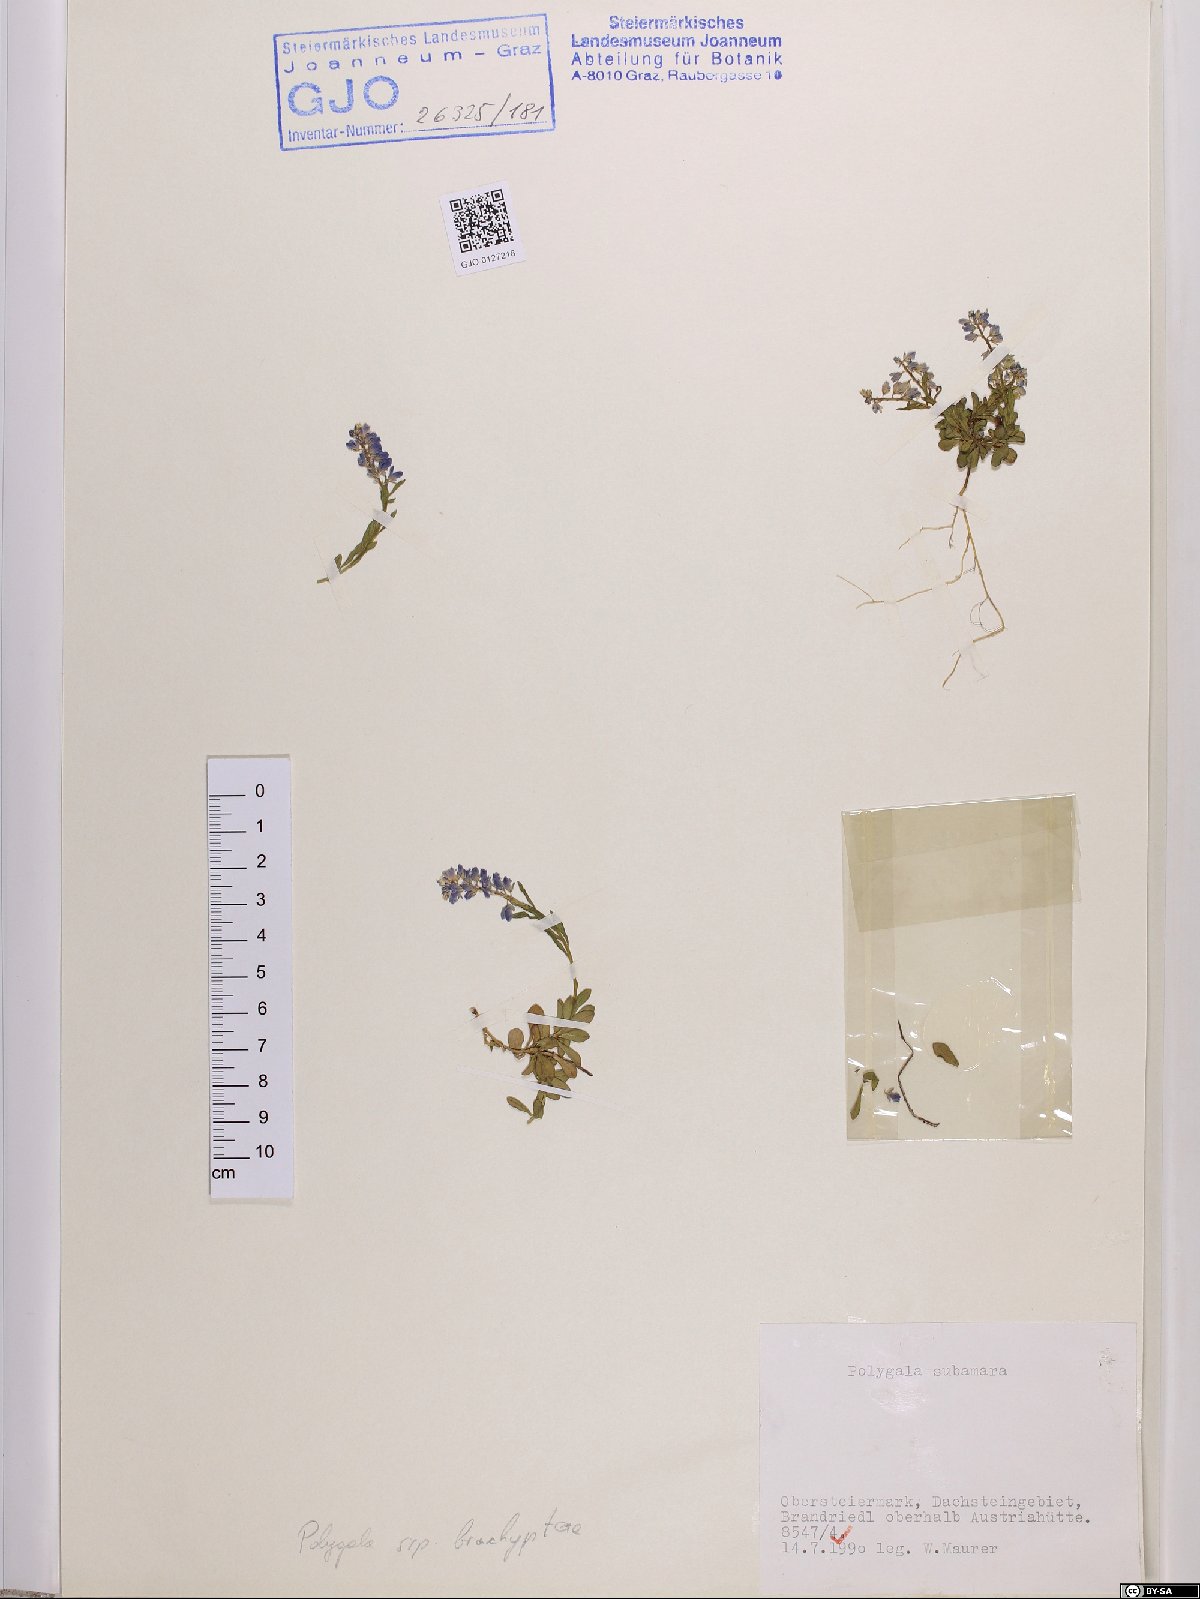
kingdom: Plantae
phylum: Tracheophyta
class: Magnoliopsida
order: Fabales
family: Polygalaceae
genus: Polygala
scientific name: Polygala amara
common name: Milkwort
